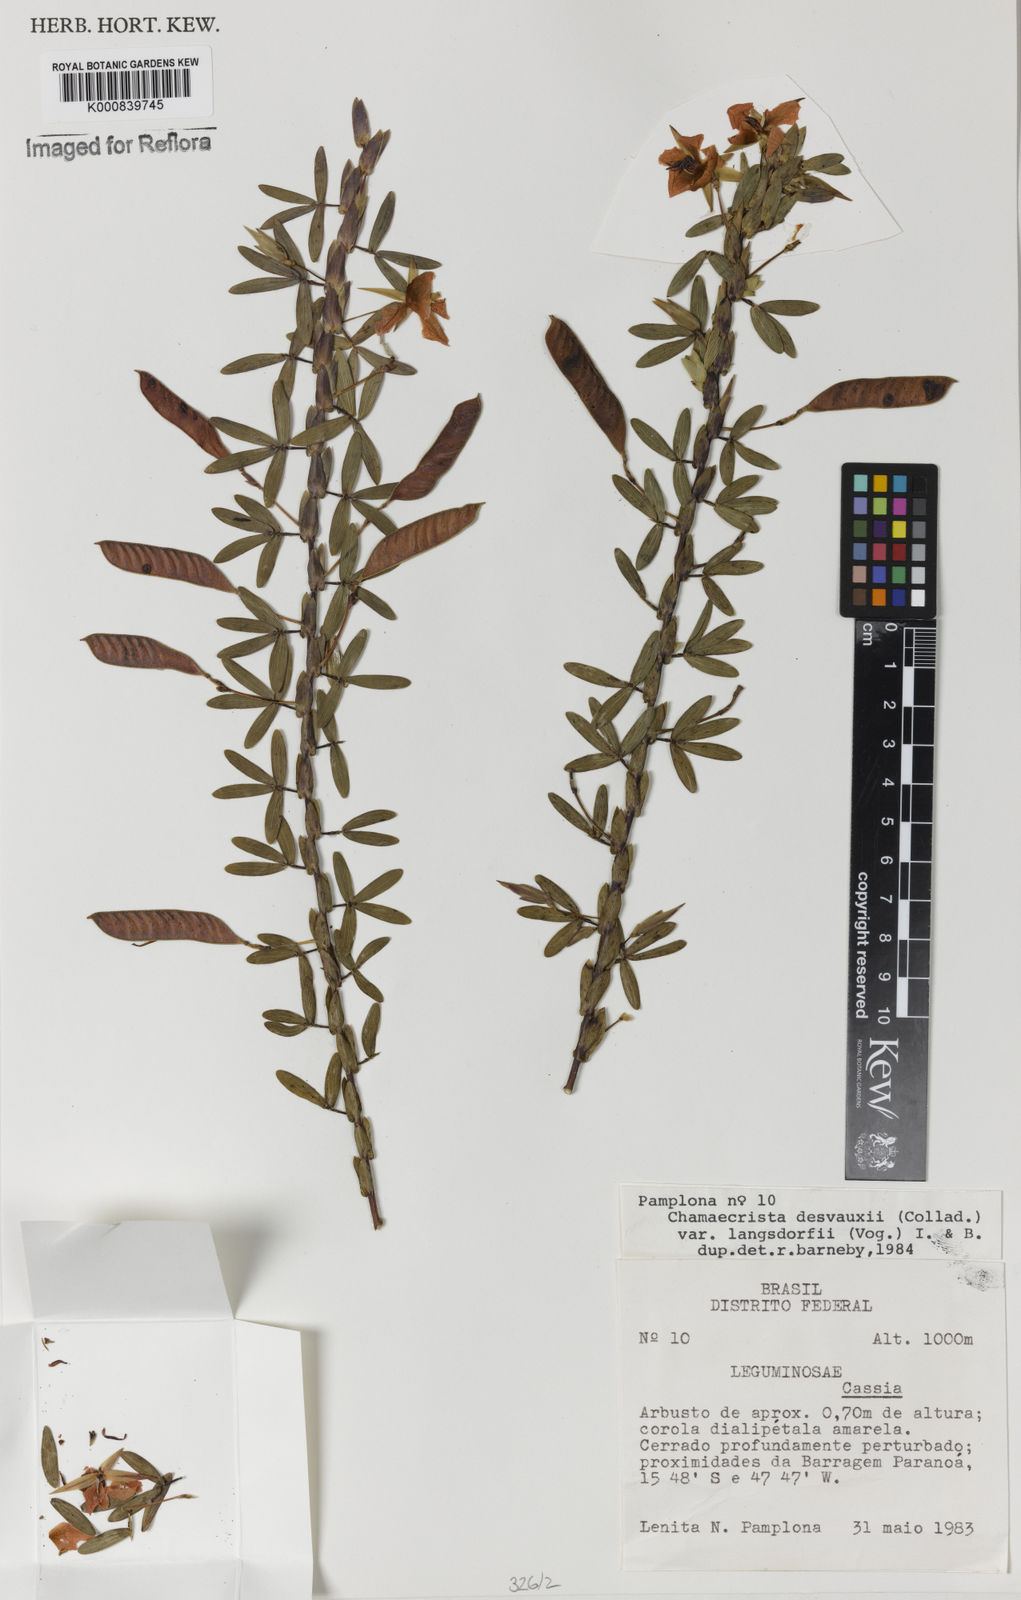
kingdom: Plantae
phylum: Tracheophyta
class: Magnoliopsida
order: Fabales
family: Fabaceae
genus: Chamaecrista
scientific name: Chamaecrista langsdorffii
